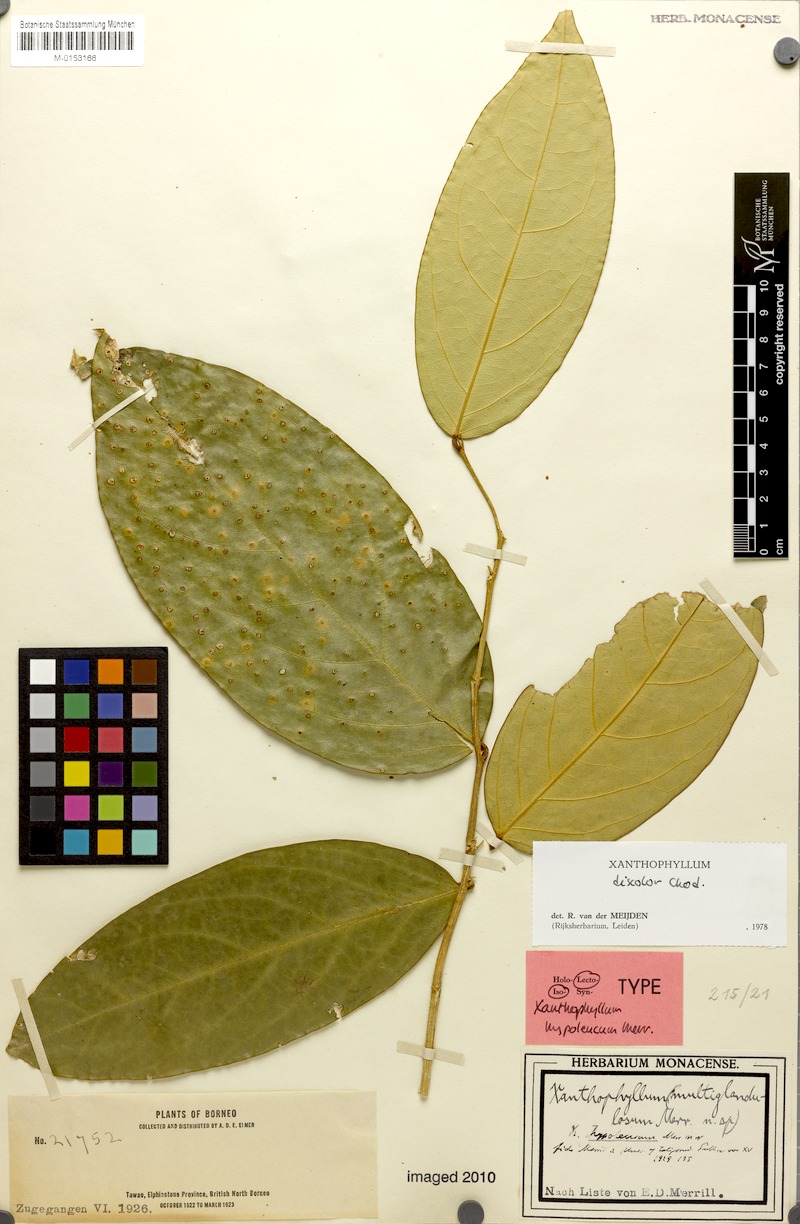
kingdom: Plantae
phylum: Tracheophyta
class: Magnoliopsida
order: Fabales
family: Polygalaceae
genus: Xanthophyllum
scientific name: Xanthophyllum discolor
